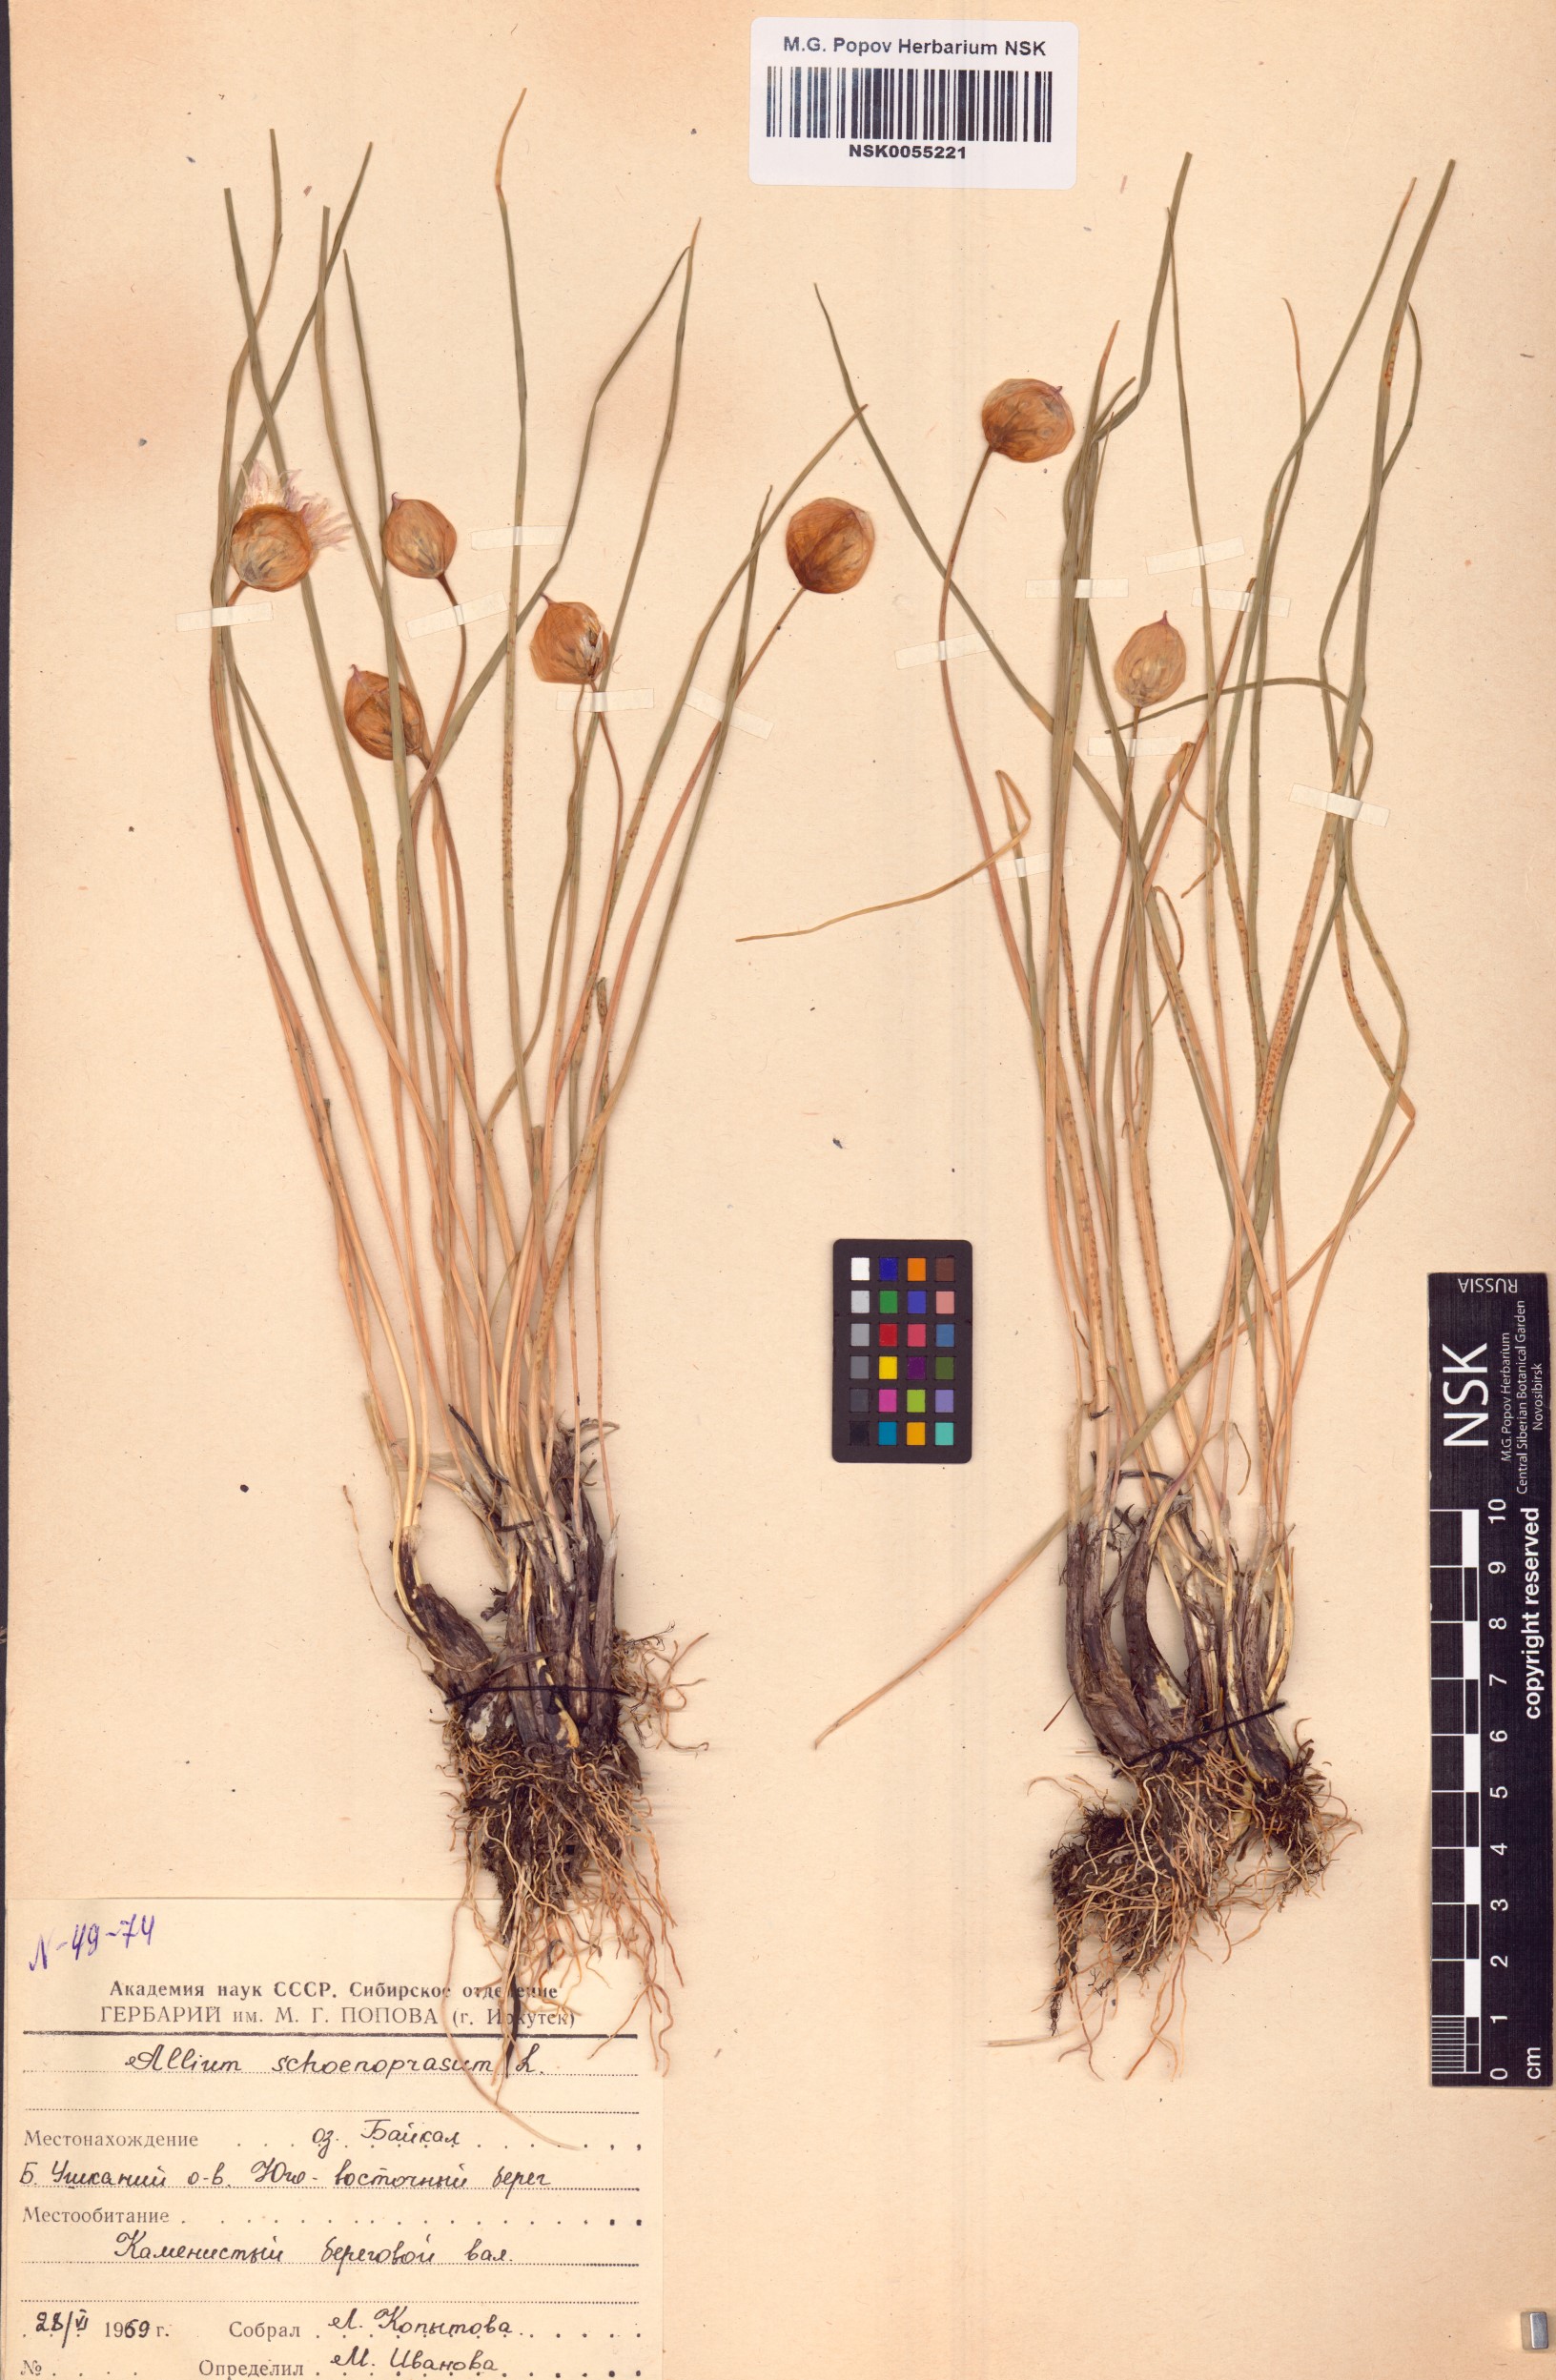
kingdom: Plantae
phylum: Tracheophyta
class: Liliopsida
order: Asparagales
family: Amaryllidaceae
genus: Allium
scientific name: Allium schoenoprasum
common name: Chives
